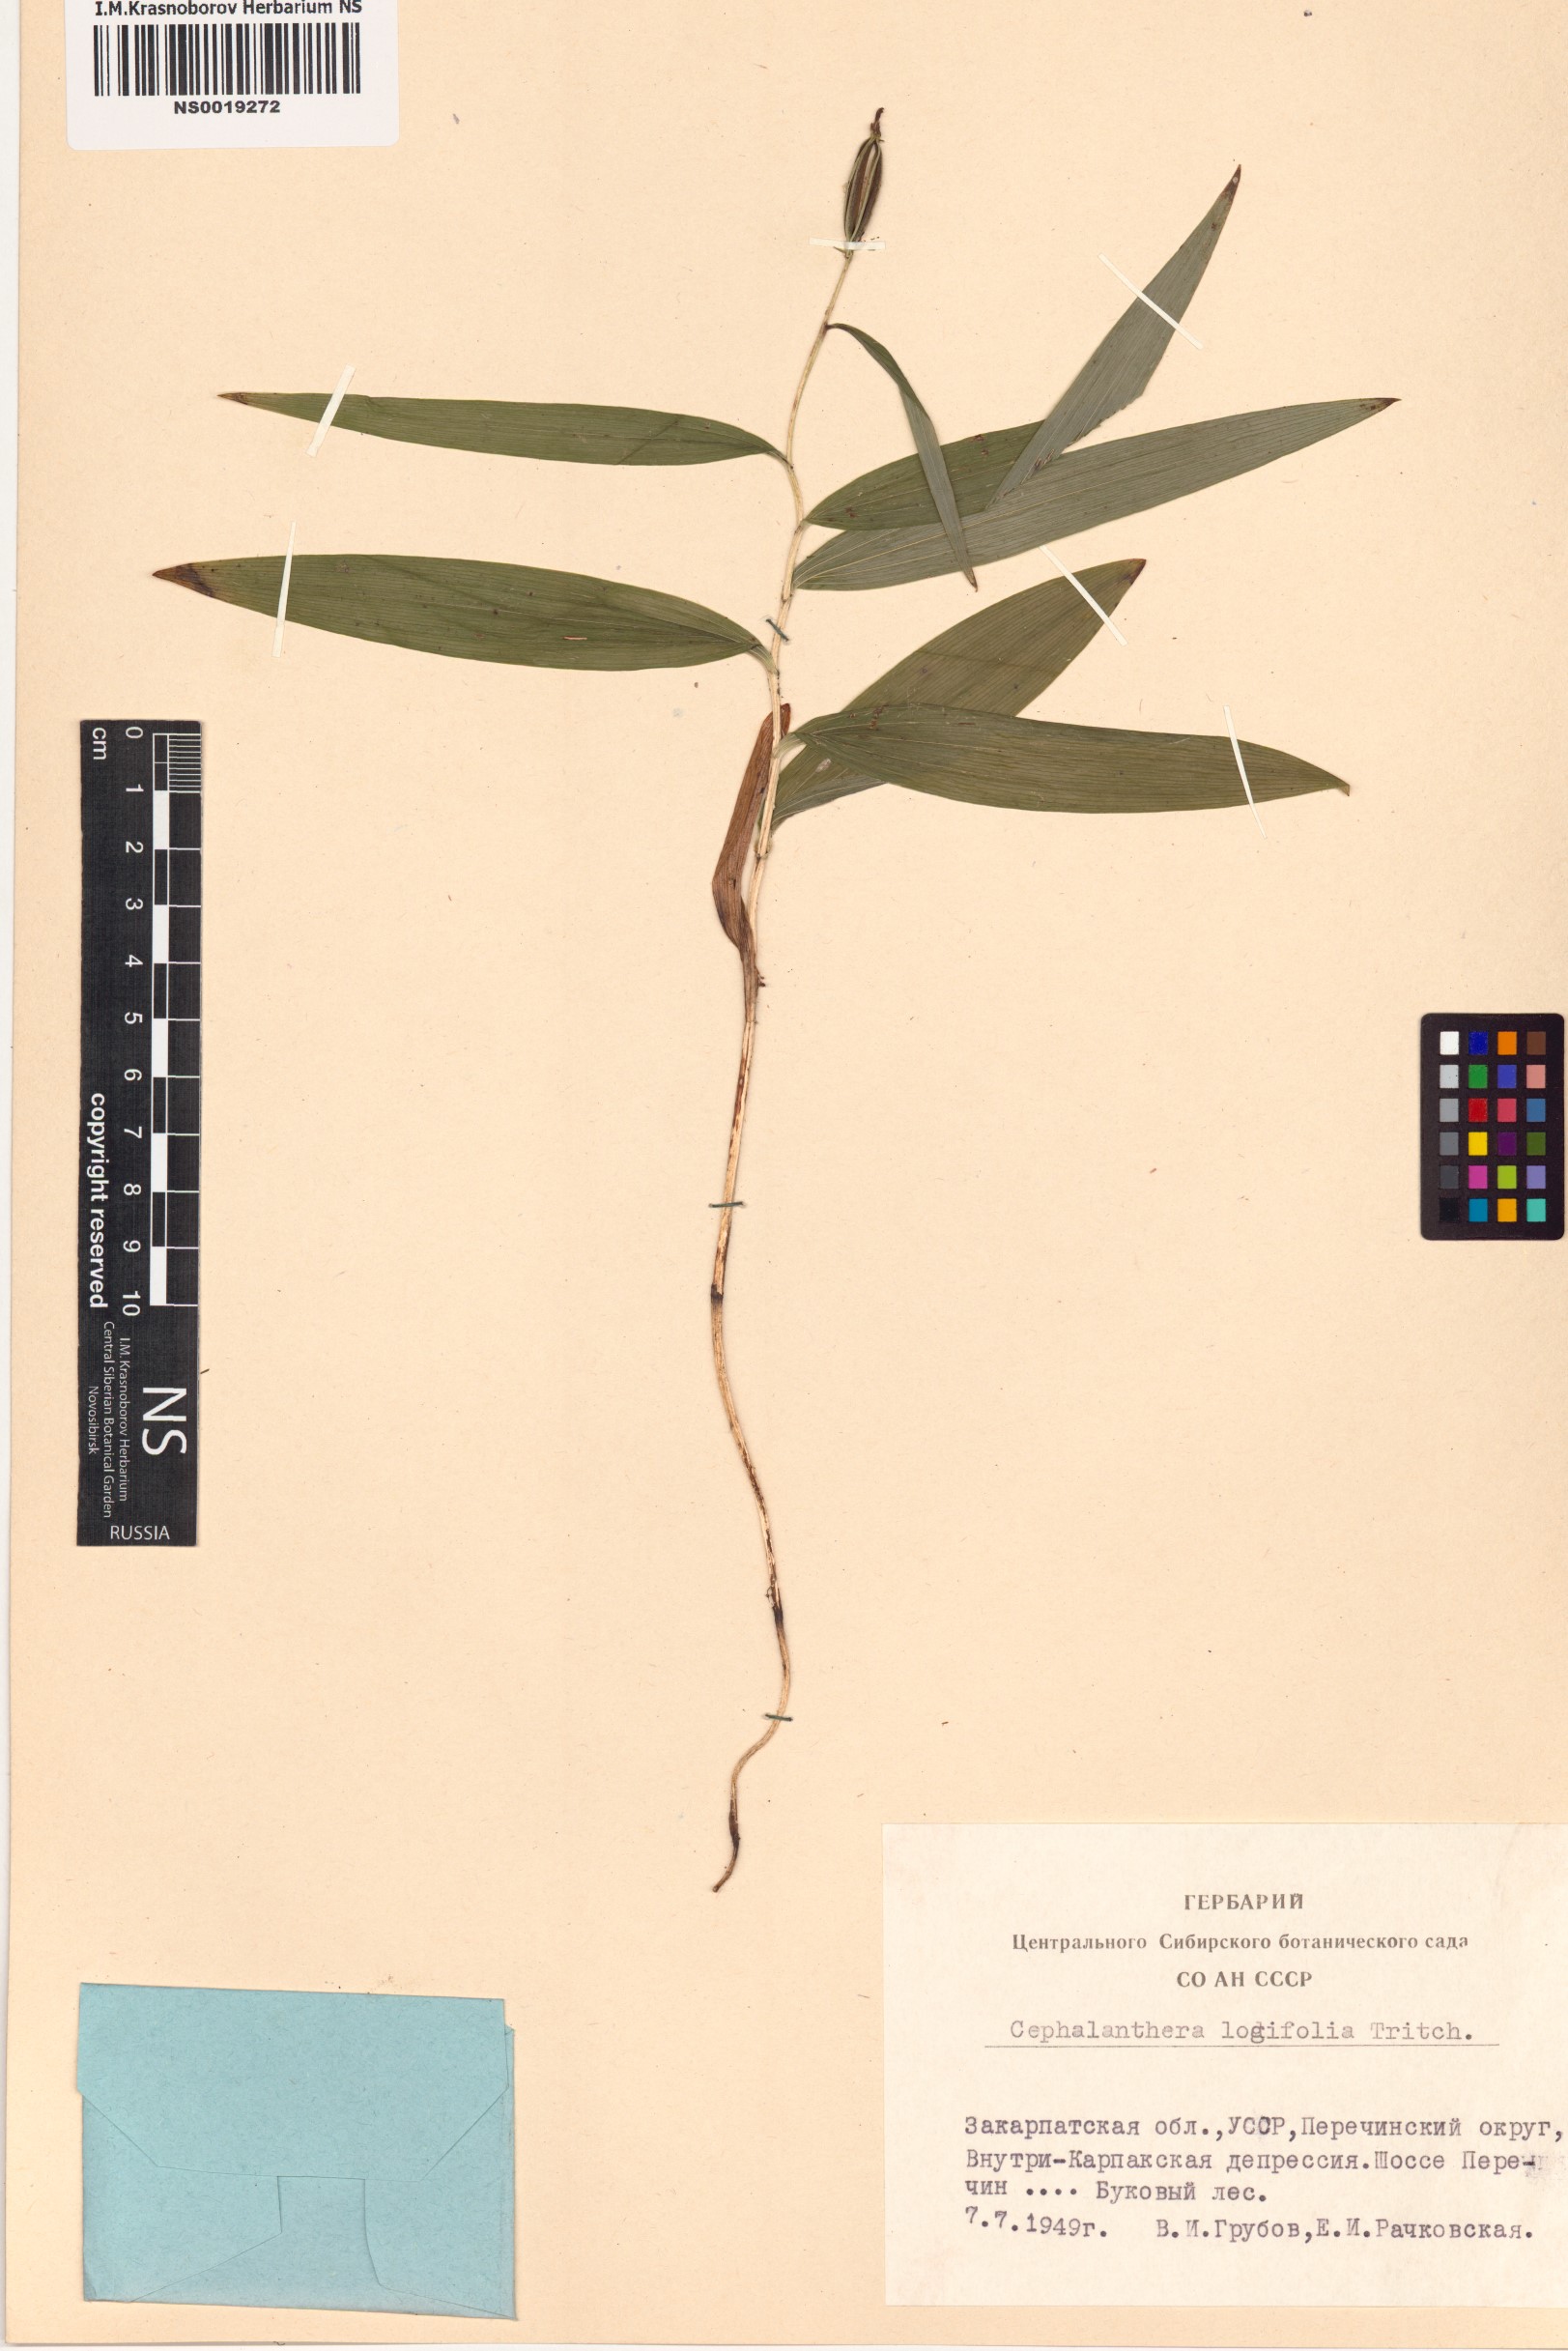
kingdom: Plantae
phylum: Tracheophyta
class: Liliopsida
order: Asparagales
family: Orchidaceae
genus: Cephalanthera
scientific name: Cephalanthera longifolia
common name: Narrow-leaved helleborine
